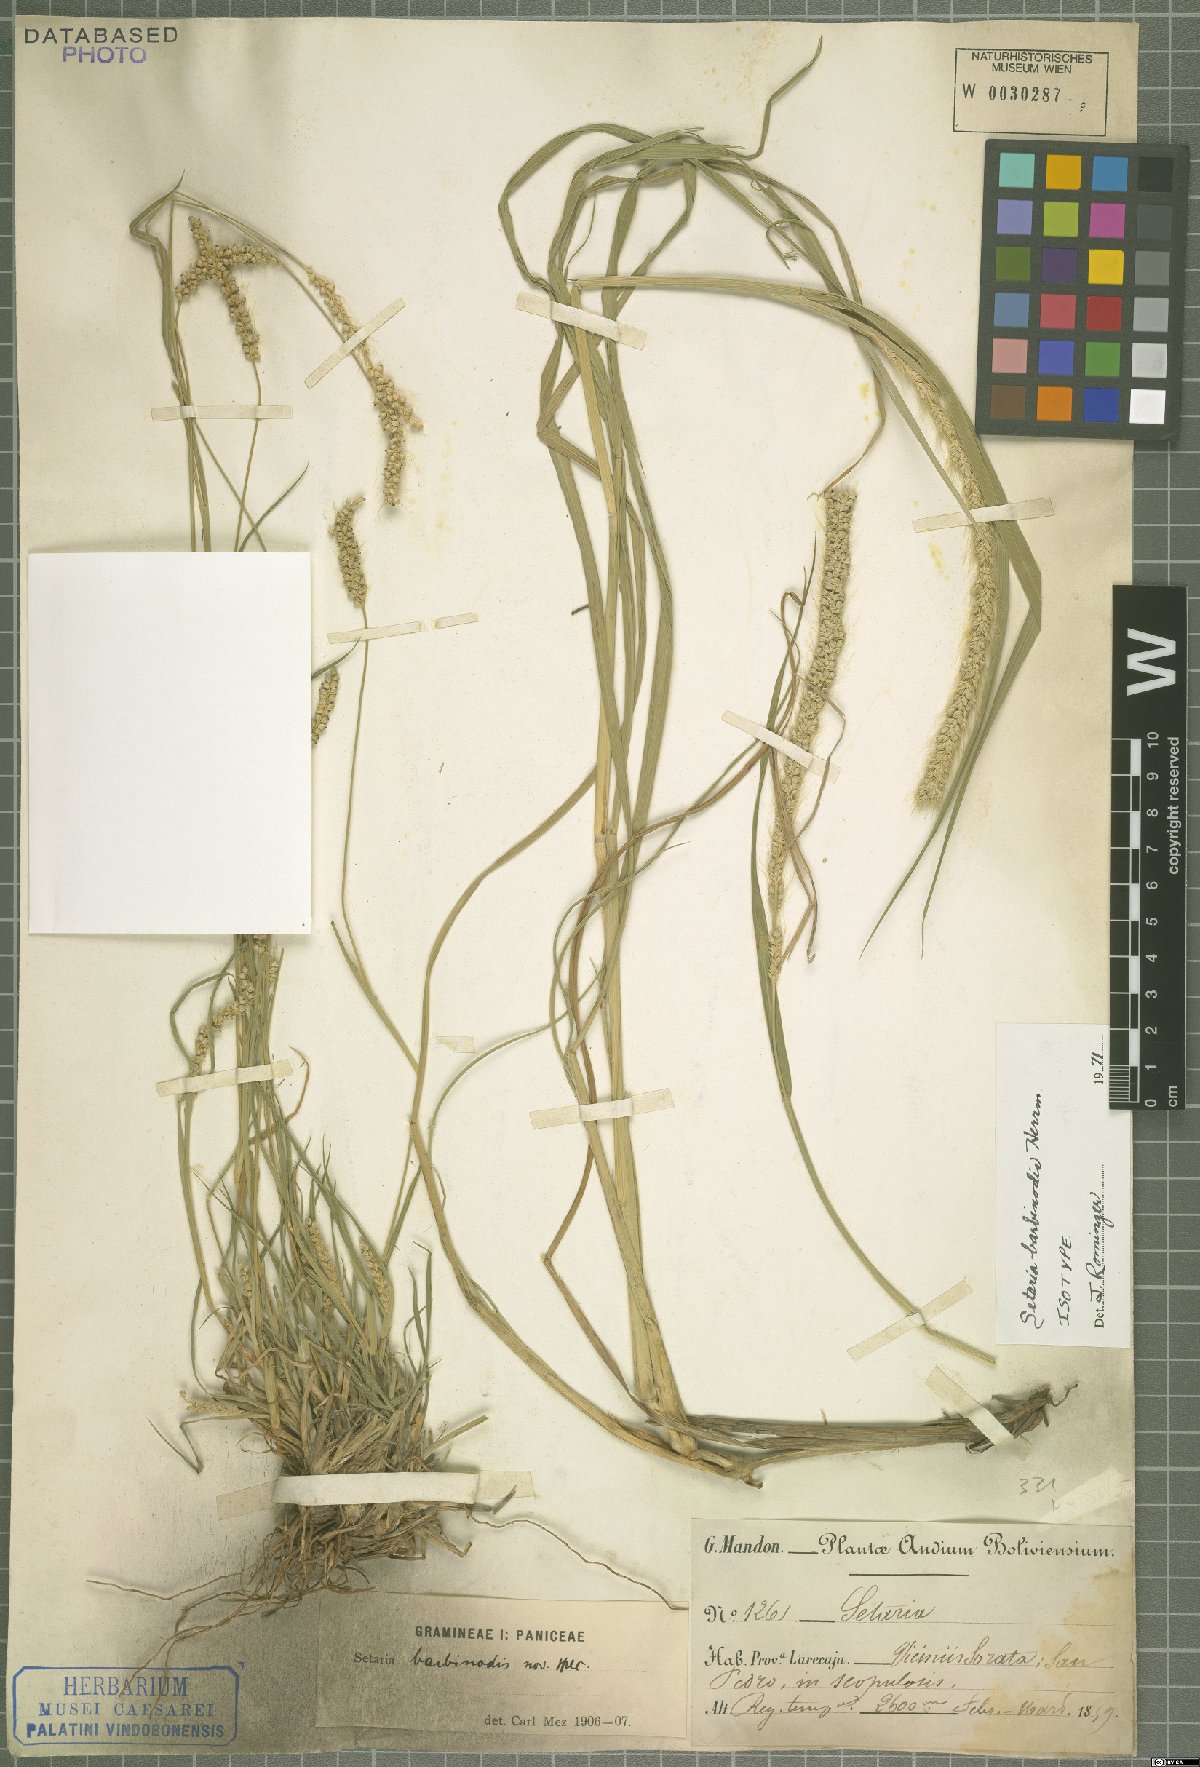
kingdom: Plantae
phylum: Tracheophyta
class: Liliopsida
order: Poales
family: Poaceae
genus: Setaria
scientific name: Setaria barbinodis
